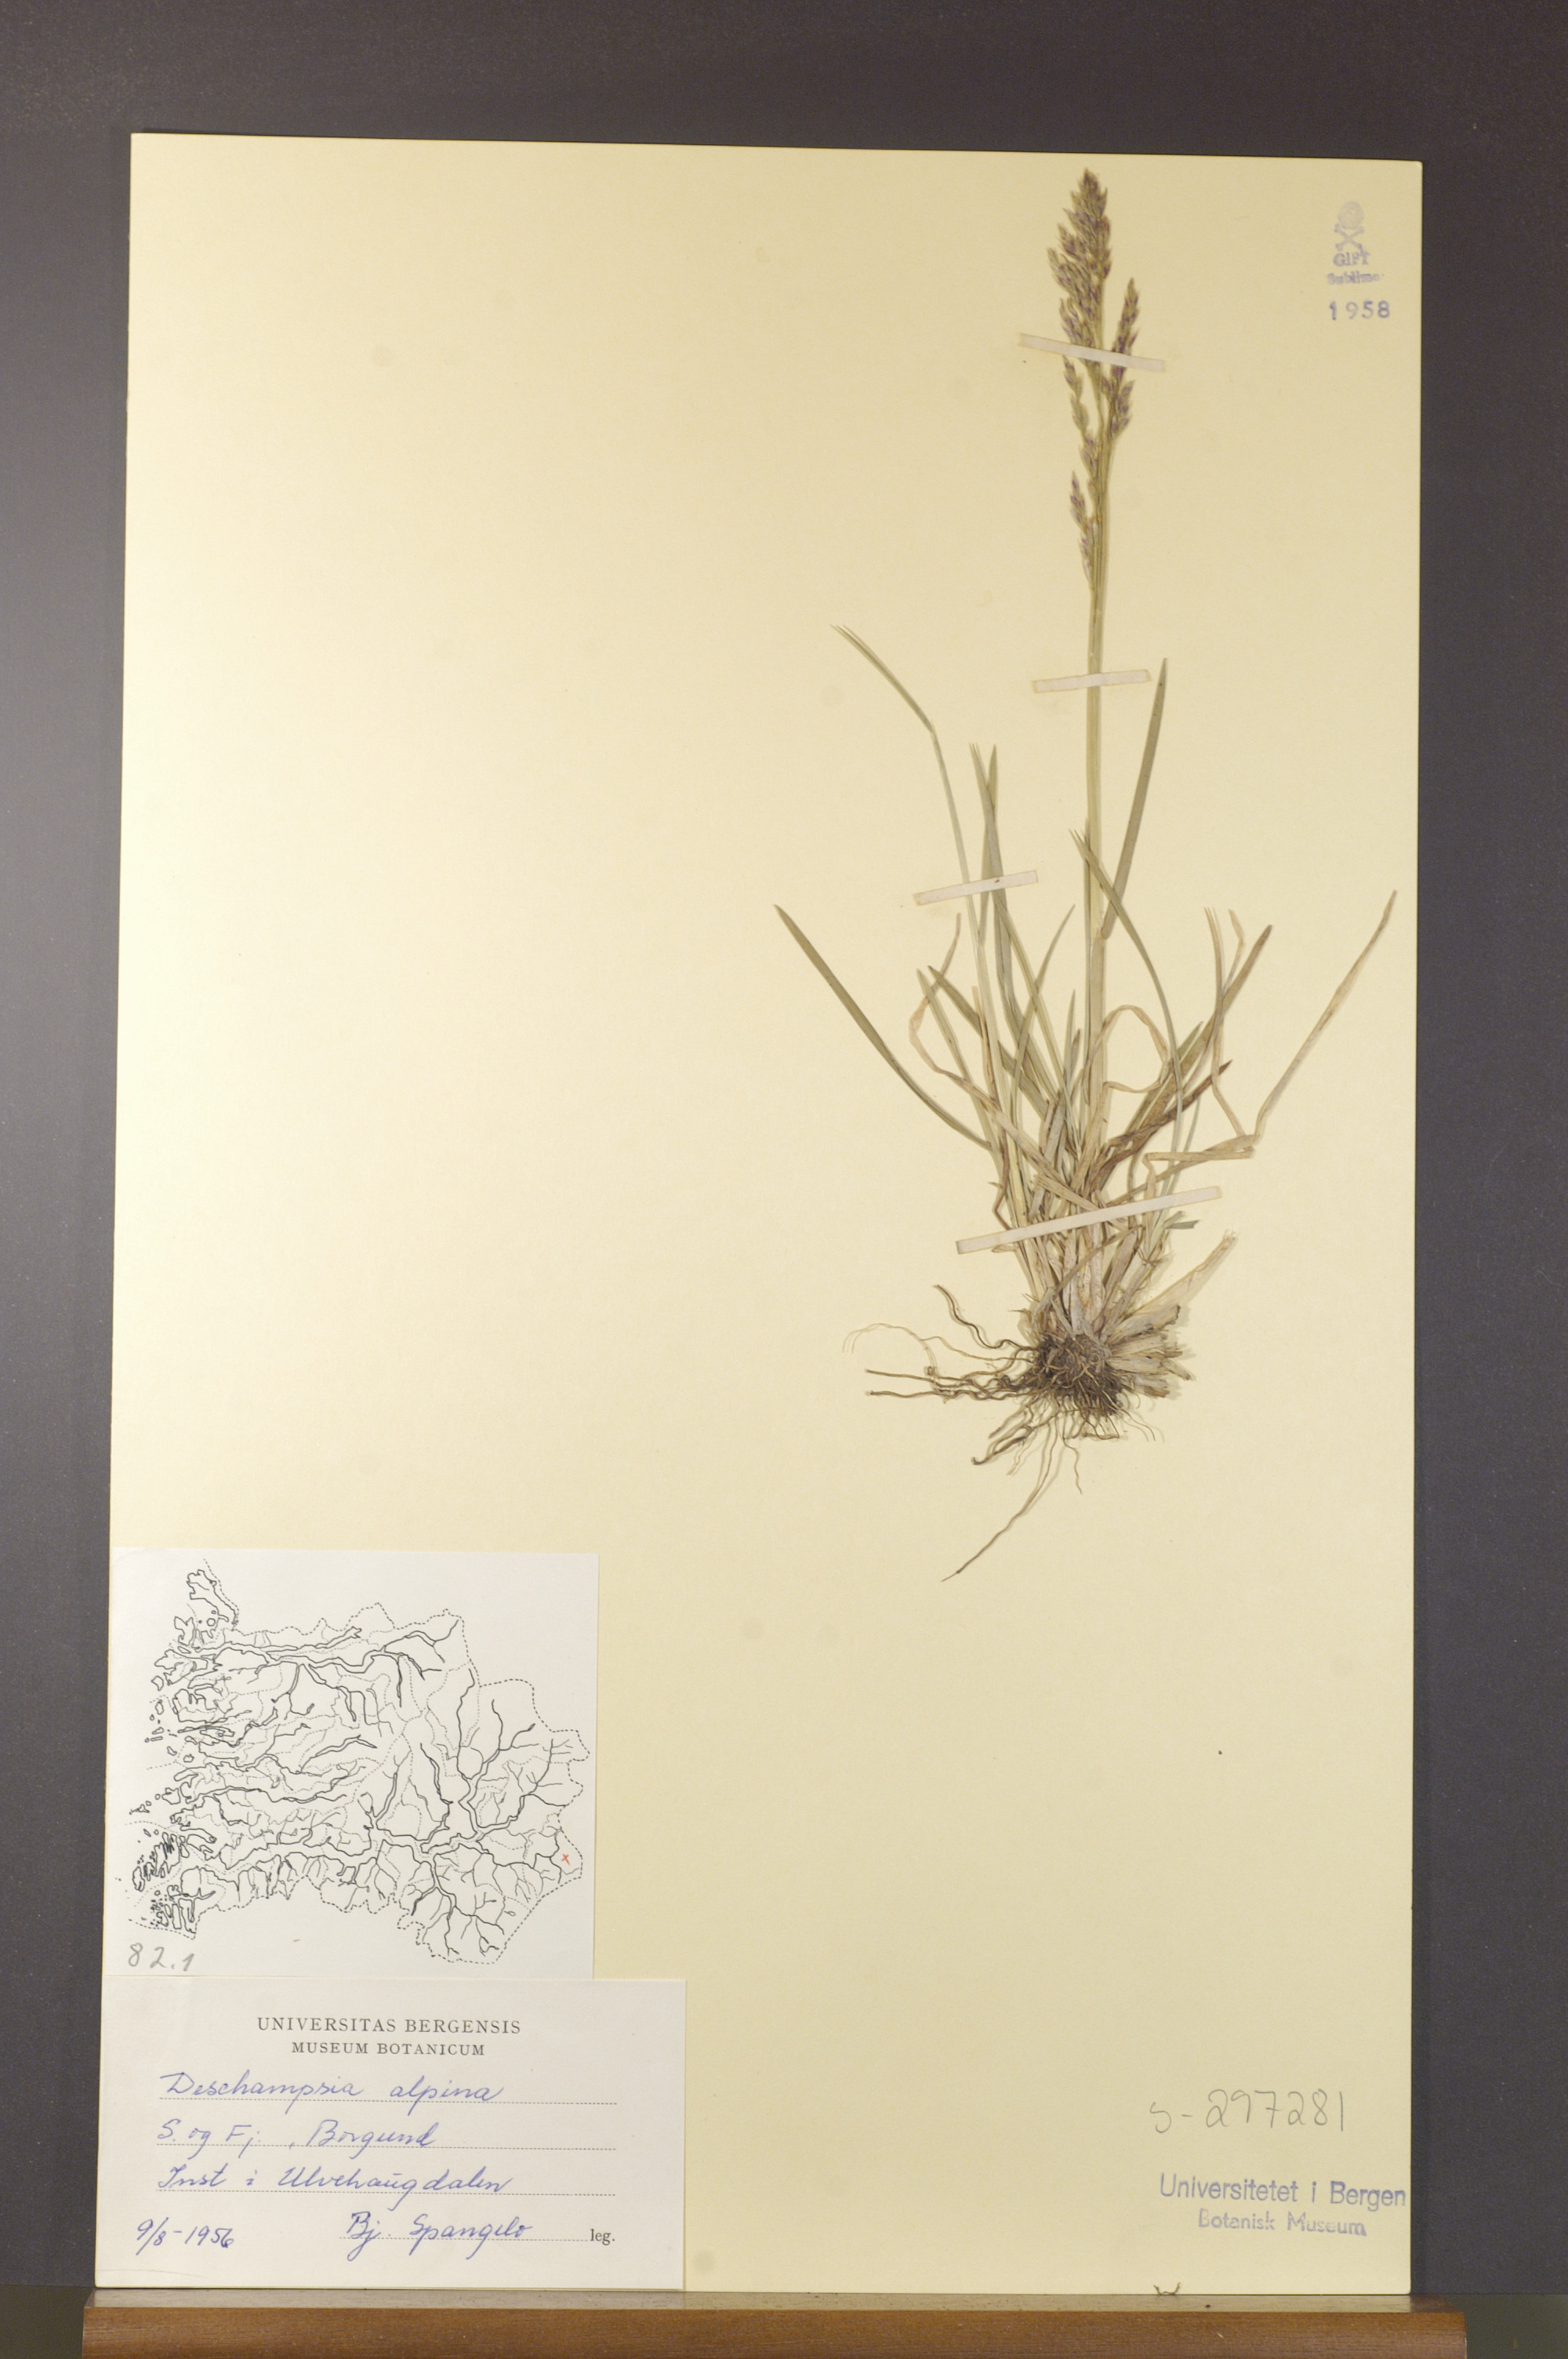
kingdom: Plantae
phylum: Tracheophyta
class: Liliopsida
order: Poales
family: Poaceae
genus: Deschampsia
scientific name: Deschampsia cespitosa
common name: Tufted hair-grass
